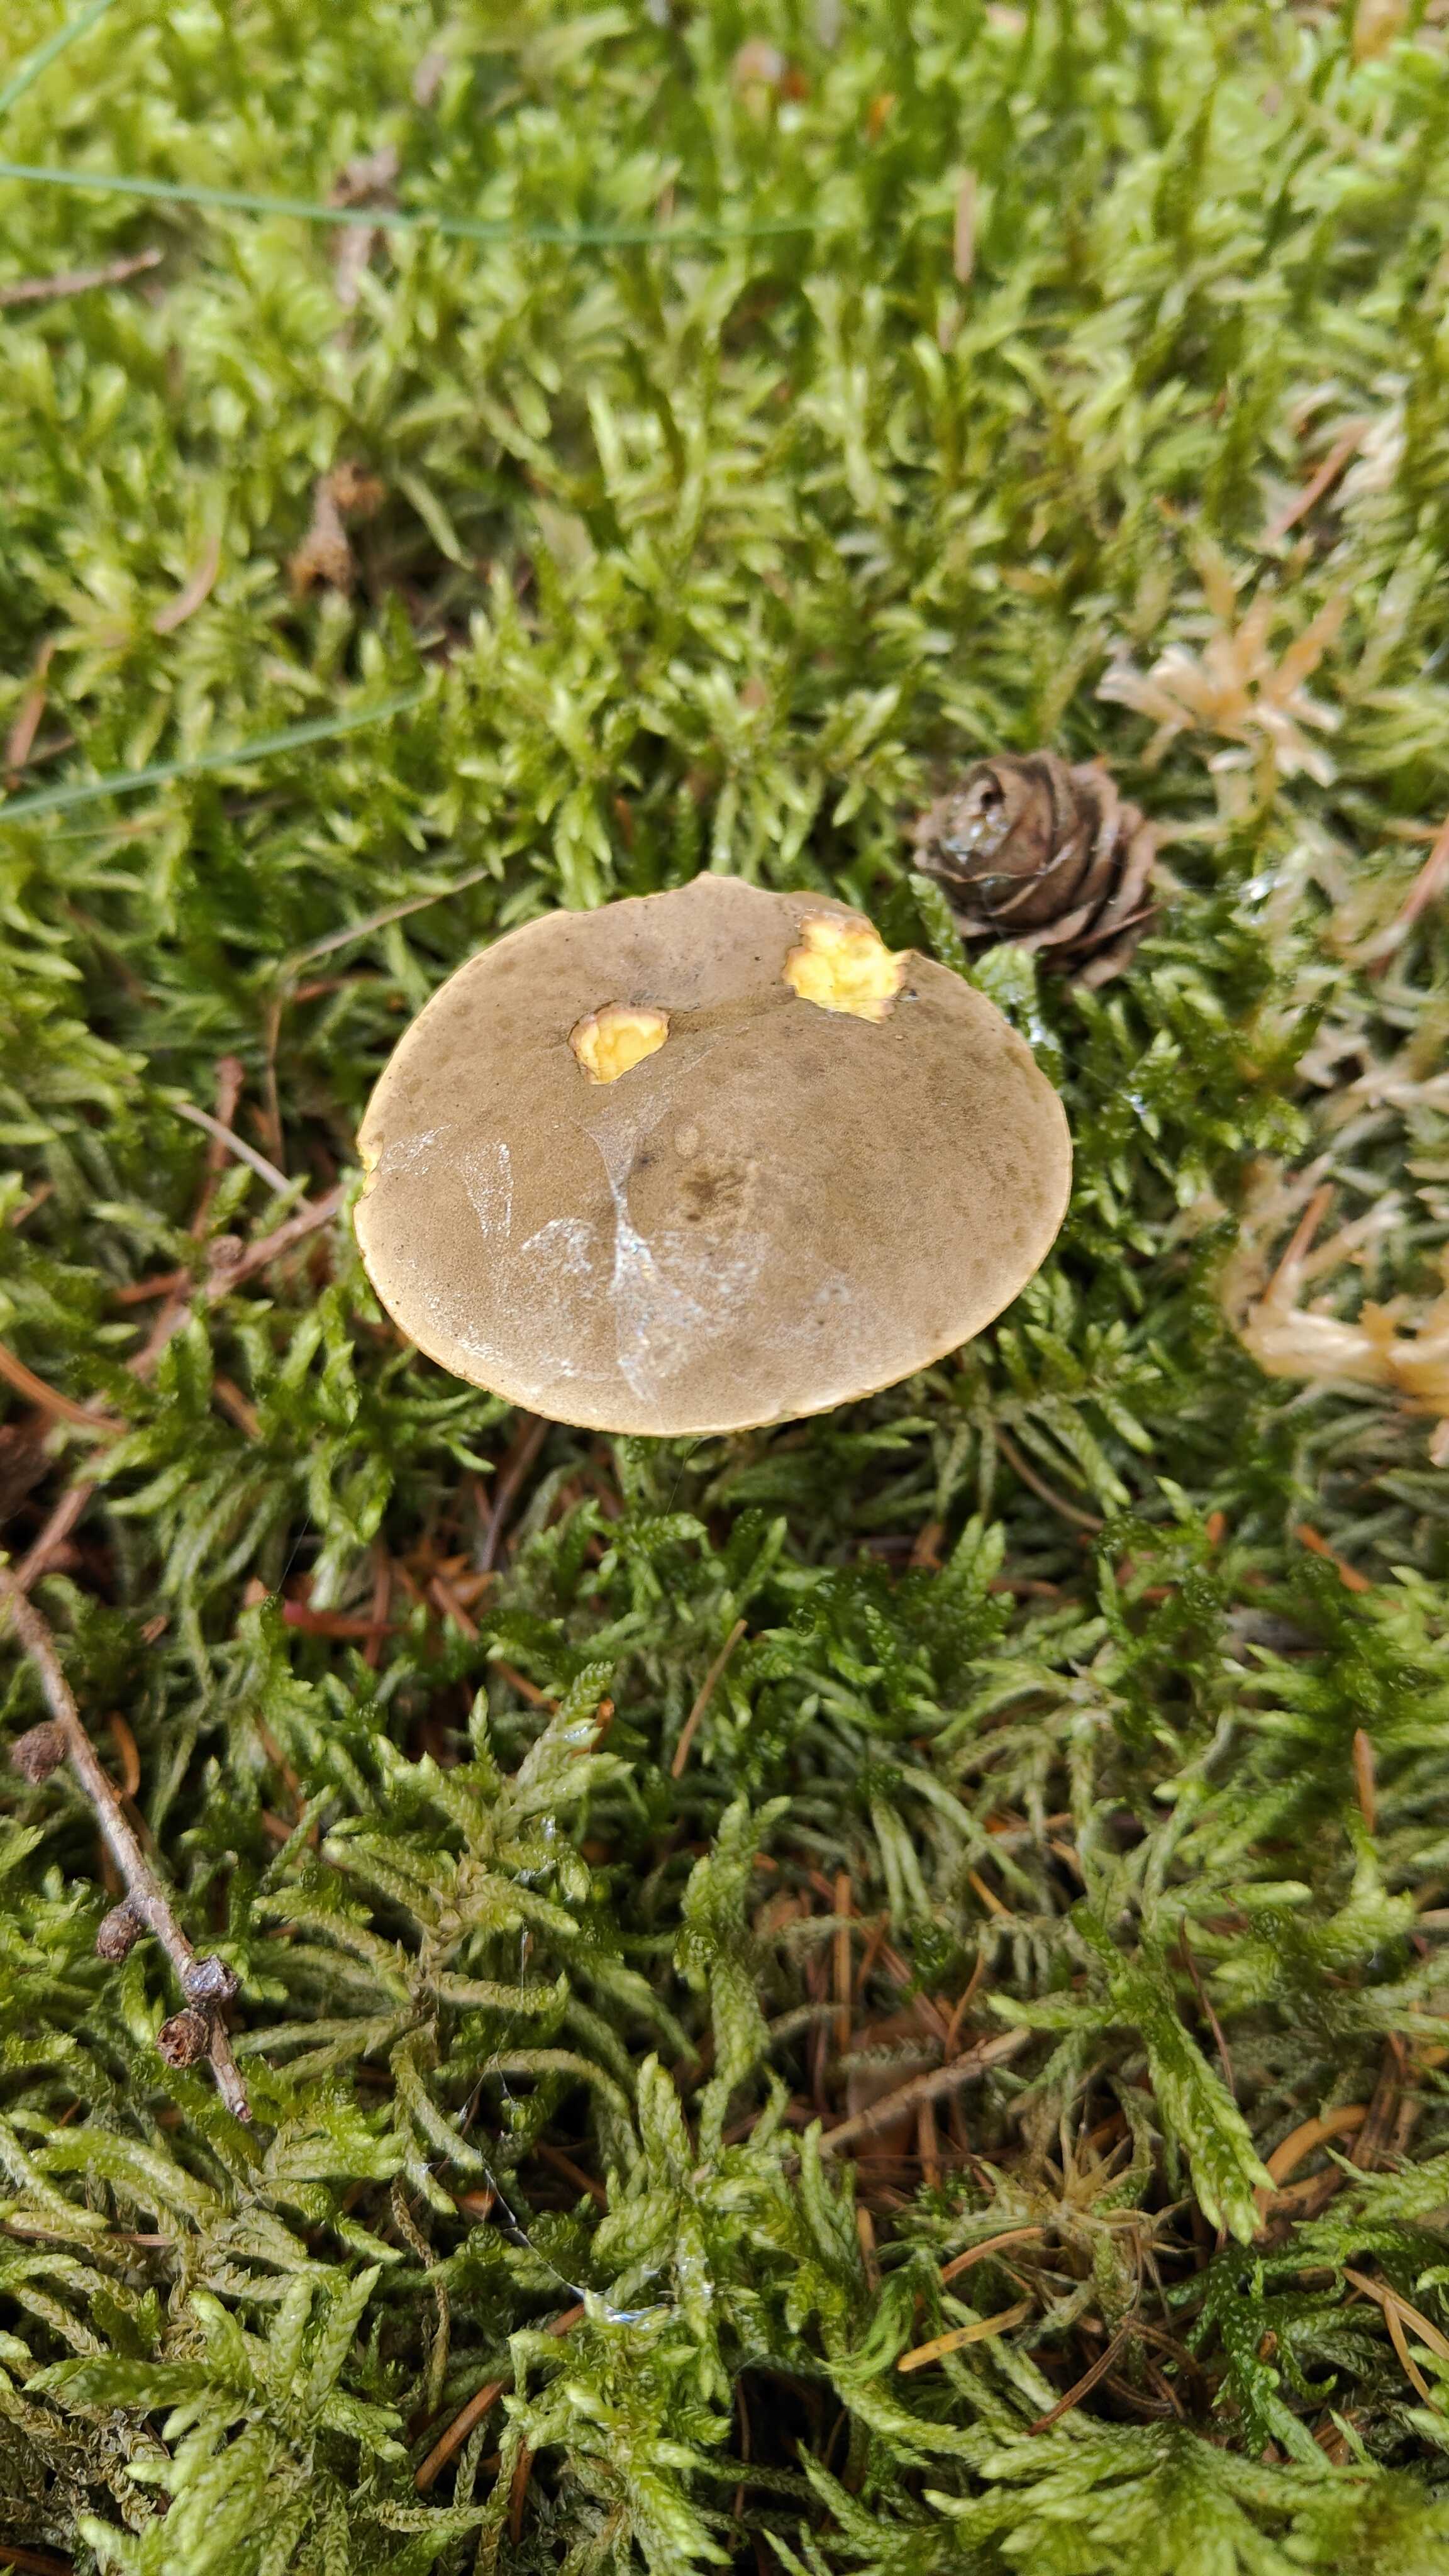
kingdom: Fungi
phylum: Basidiomycota
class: Agaricomycetes
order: Boletales
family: Boletaceae
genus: Xerocomellus
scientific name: Xerocomellus chrysenteron
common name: rødsprukken rørhat
